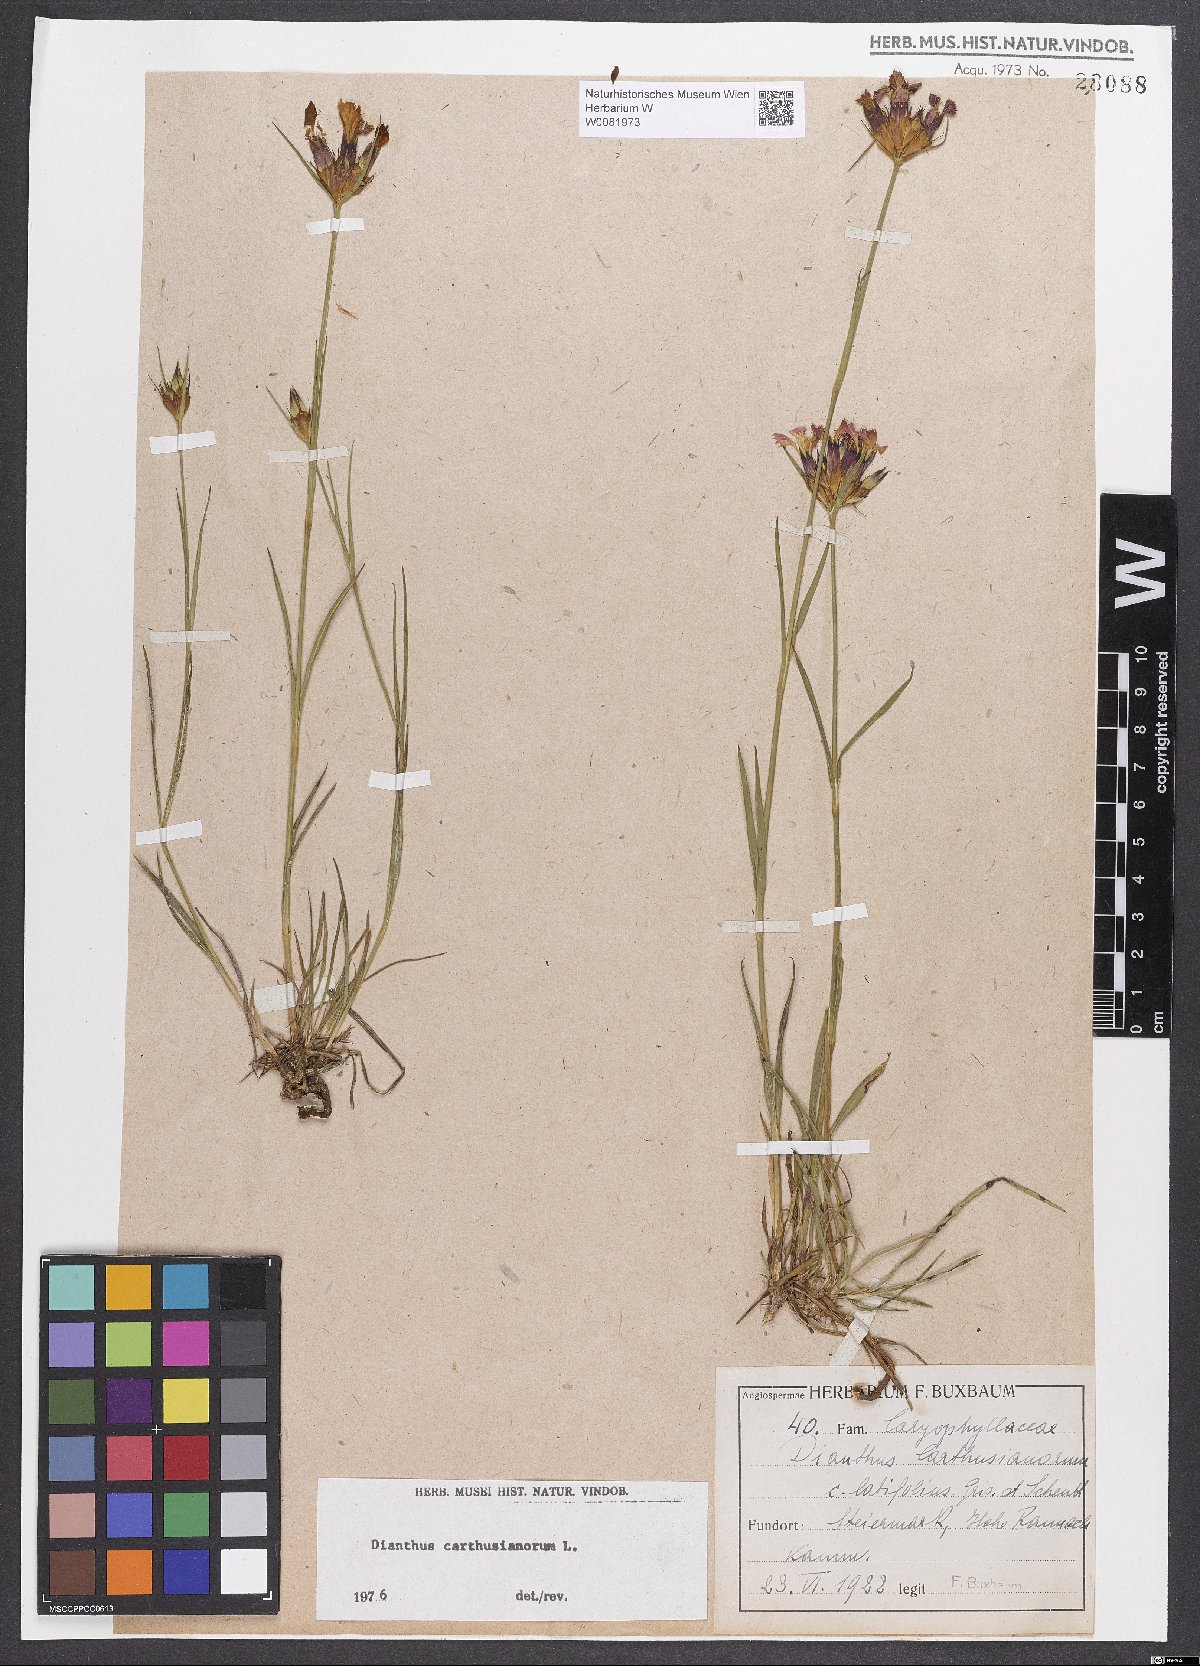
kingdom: Plantae
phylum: Tracheophyta
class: Magnoliopsida
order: Caryophyllales
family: Caryophyllaceae
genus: Dianthus
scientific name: Dianthus carthusianorum
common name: Carthusian pink
